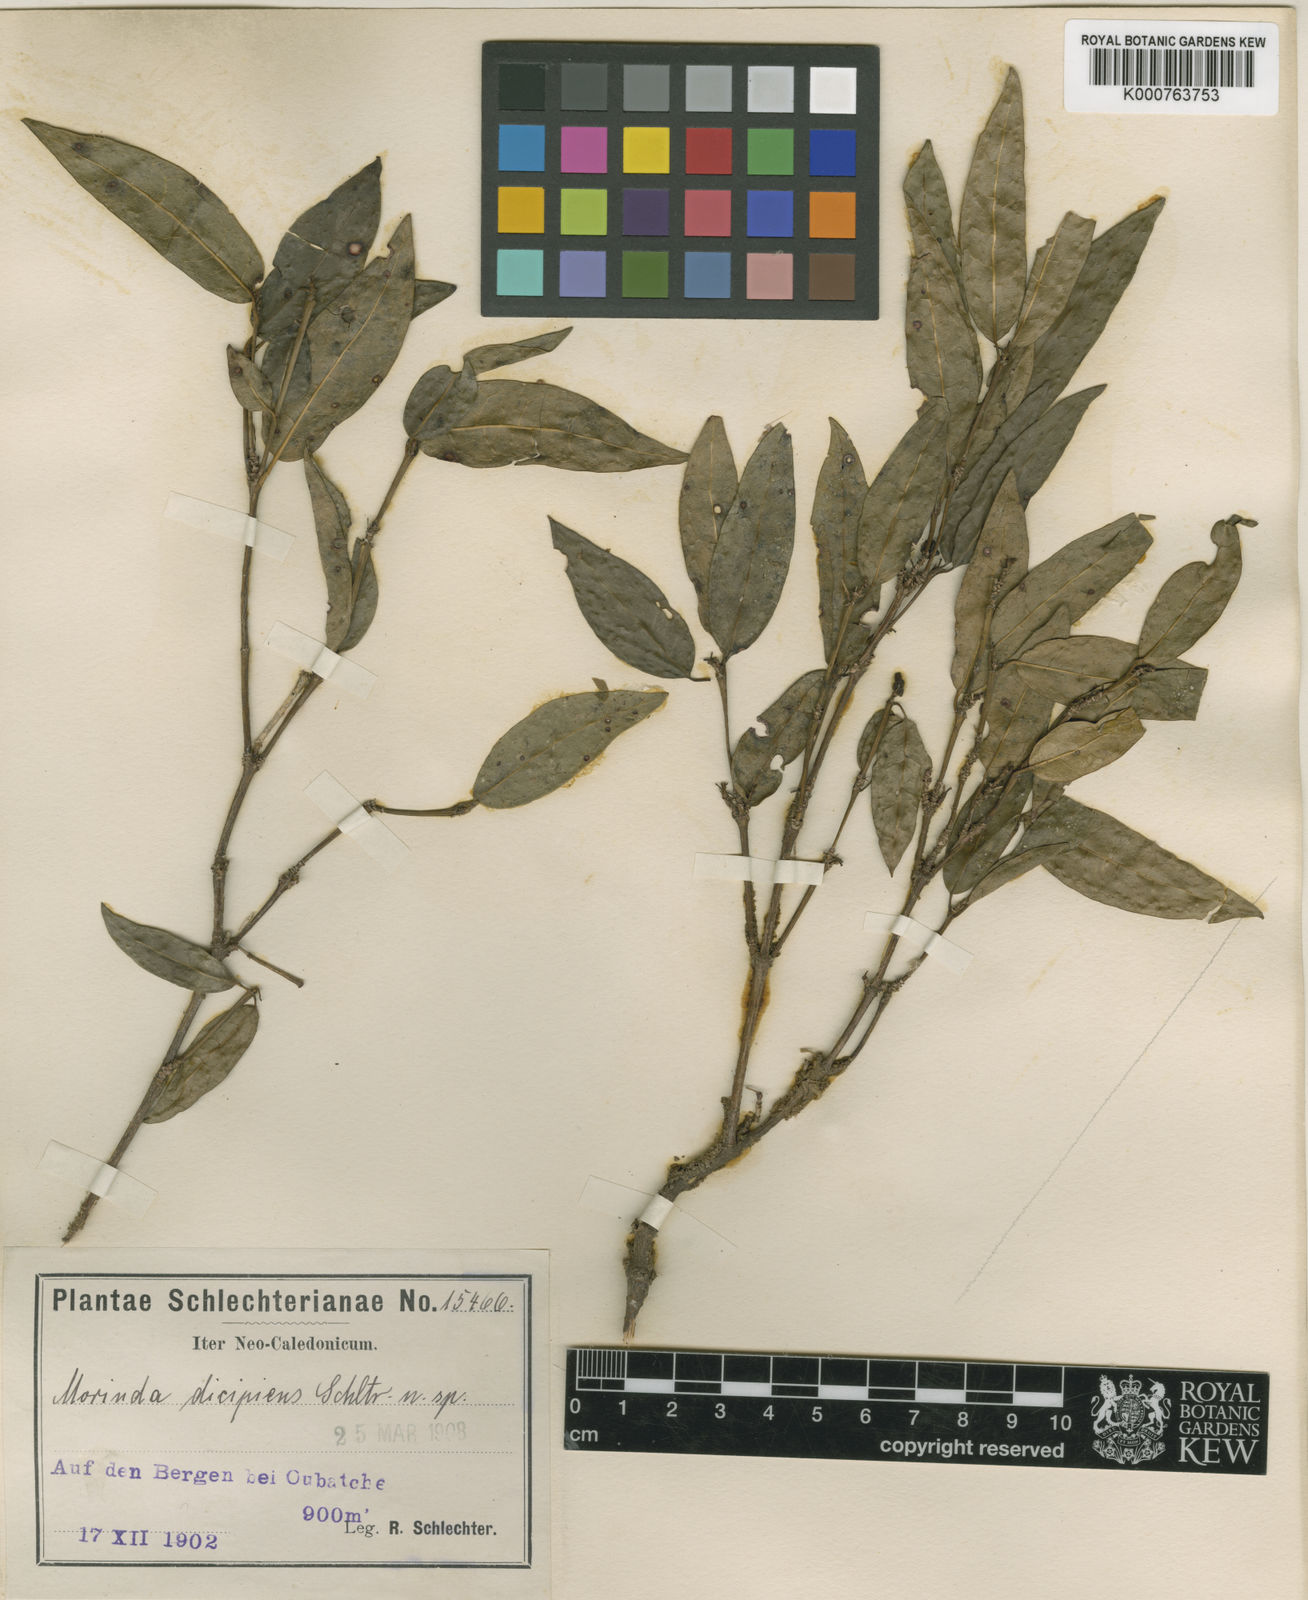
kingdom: Plantae
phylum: Tracheophyta
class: Magnoliopsida
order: Gentianales
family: Rubiaceae
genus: Gynochthodes
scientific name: Gynochthodes decipiens
